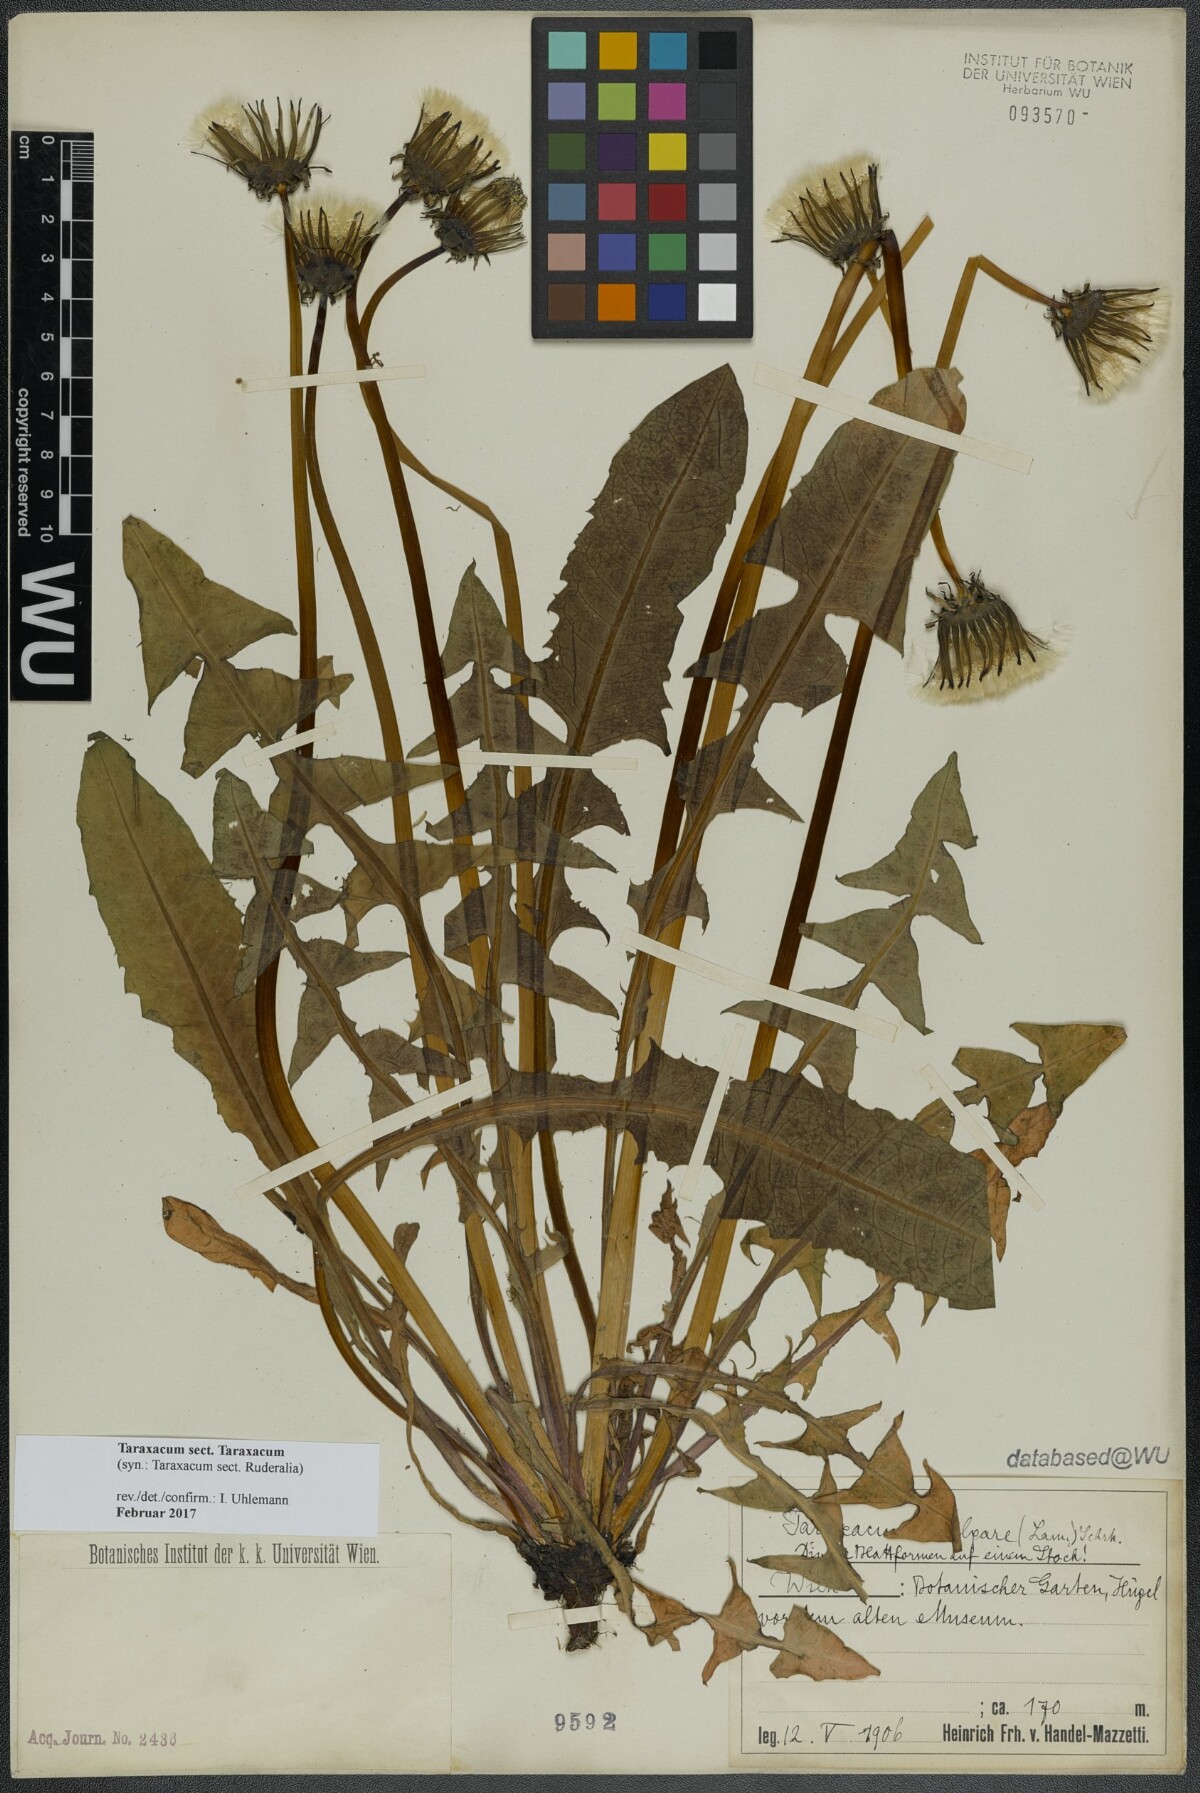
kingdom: Plantae
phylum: Tracheophyta
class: Magnoliopsida
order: Asterales
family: Asteraceae
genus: Taraxacum
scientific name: Taraxacum
